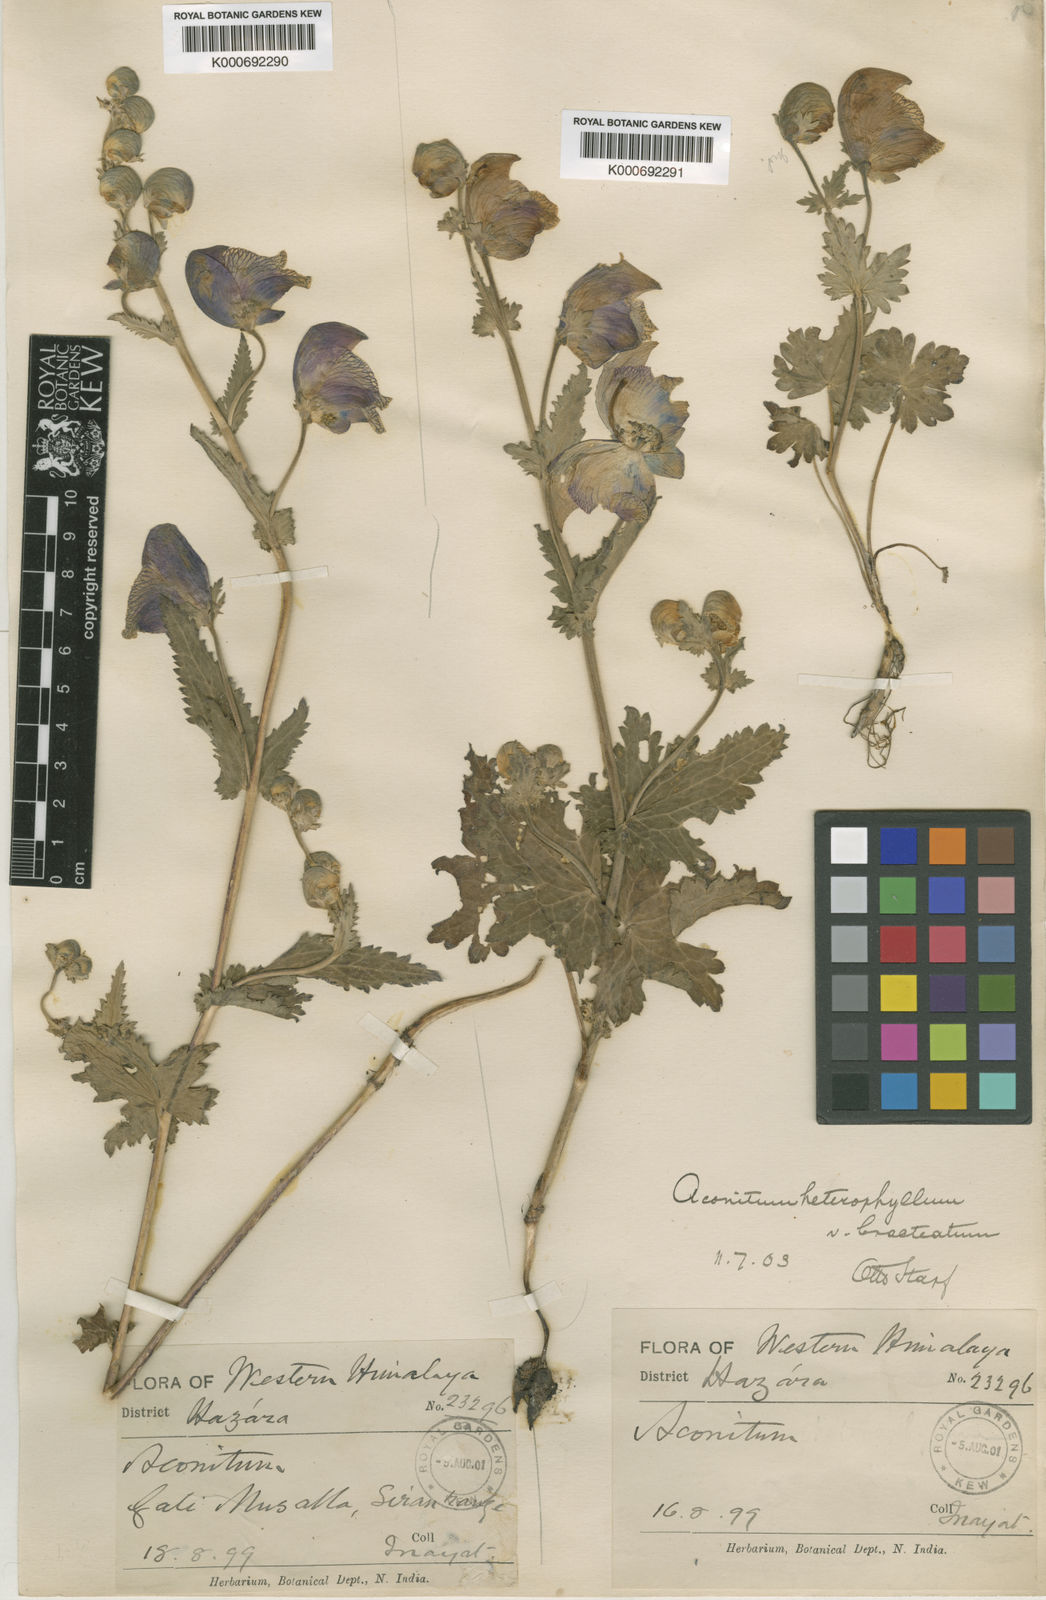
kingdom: Plantae
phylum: Tracheophyta
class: Magnoliopsida
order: Ranunculales
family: Ranunculaceae
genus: Aconitum
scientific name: Aconitum
